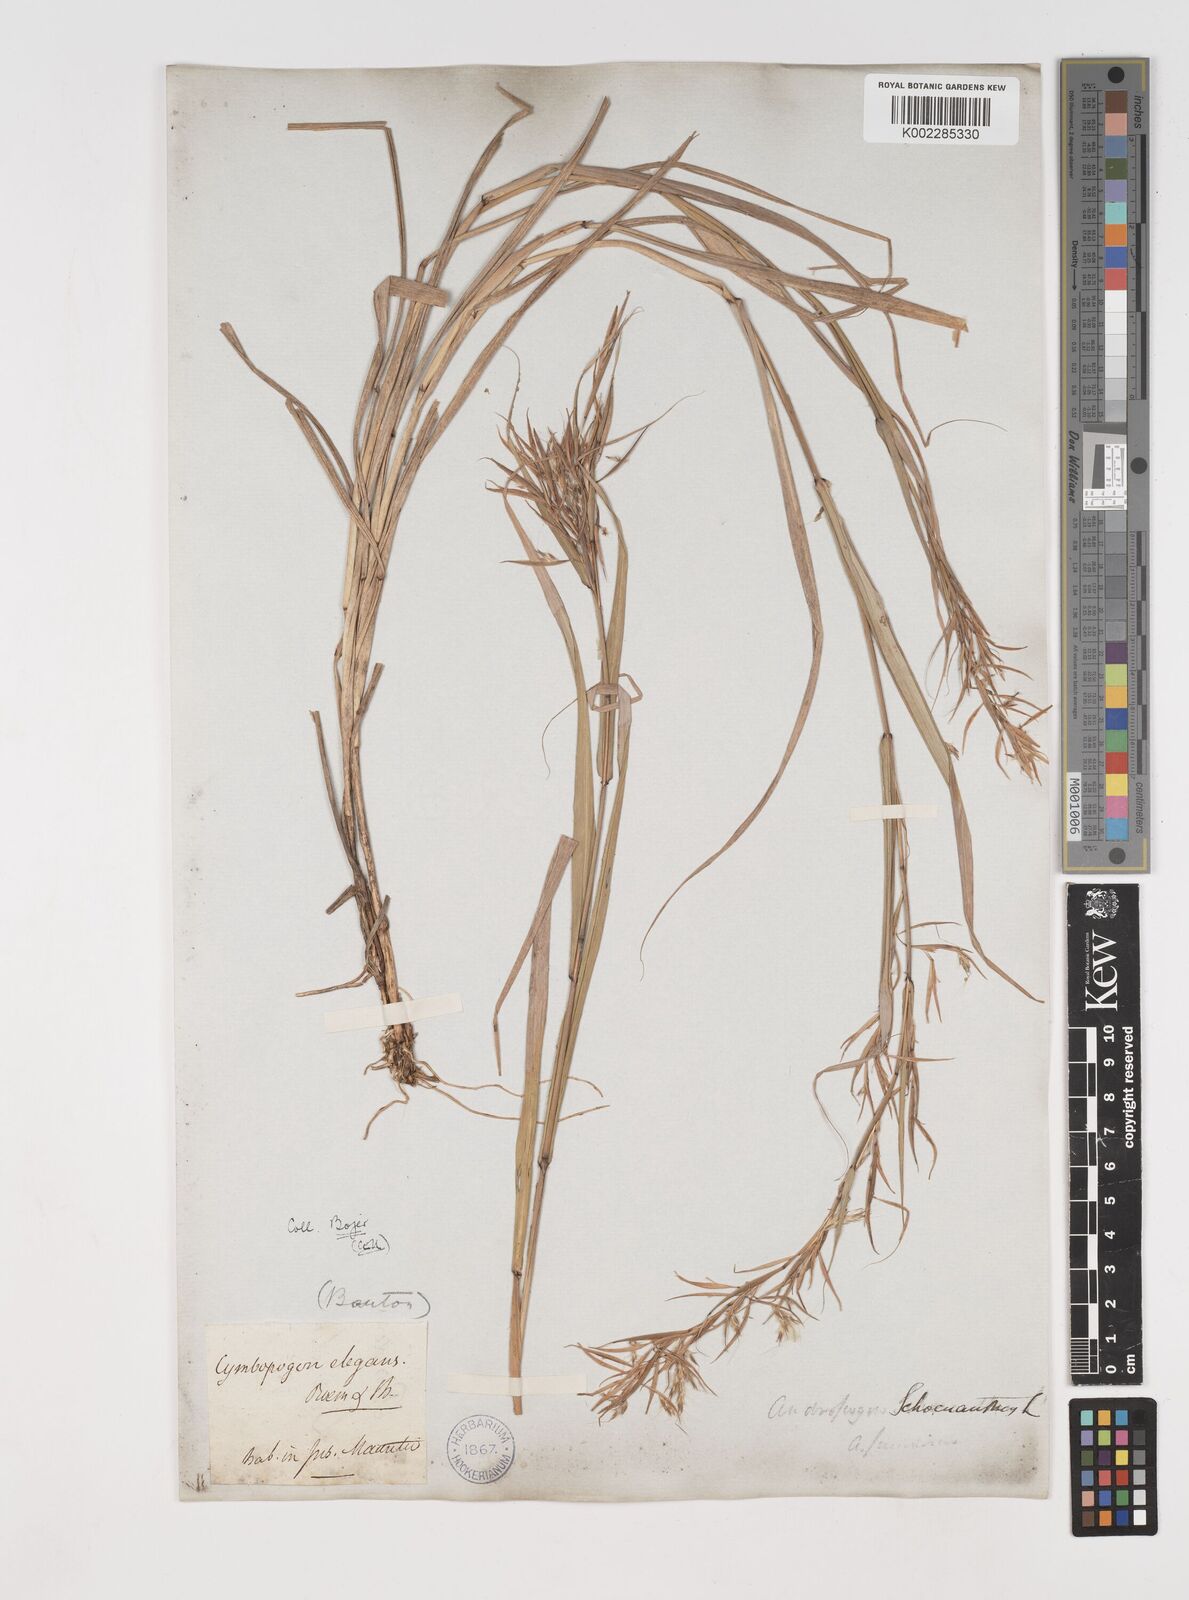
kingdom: Plantae
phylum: Tracheophyta
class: Liliopsida
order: Poales
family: Poaceae
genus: Cymbopogon
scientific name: Cymbopogon pruinosus
